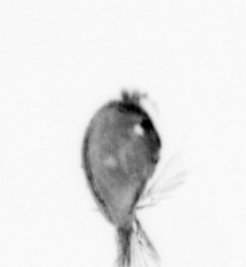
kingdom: Animalia
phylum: Arthropoda
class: Maxillopoda
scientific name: Maxillopoda
